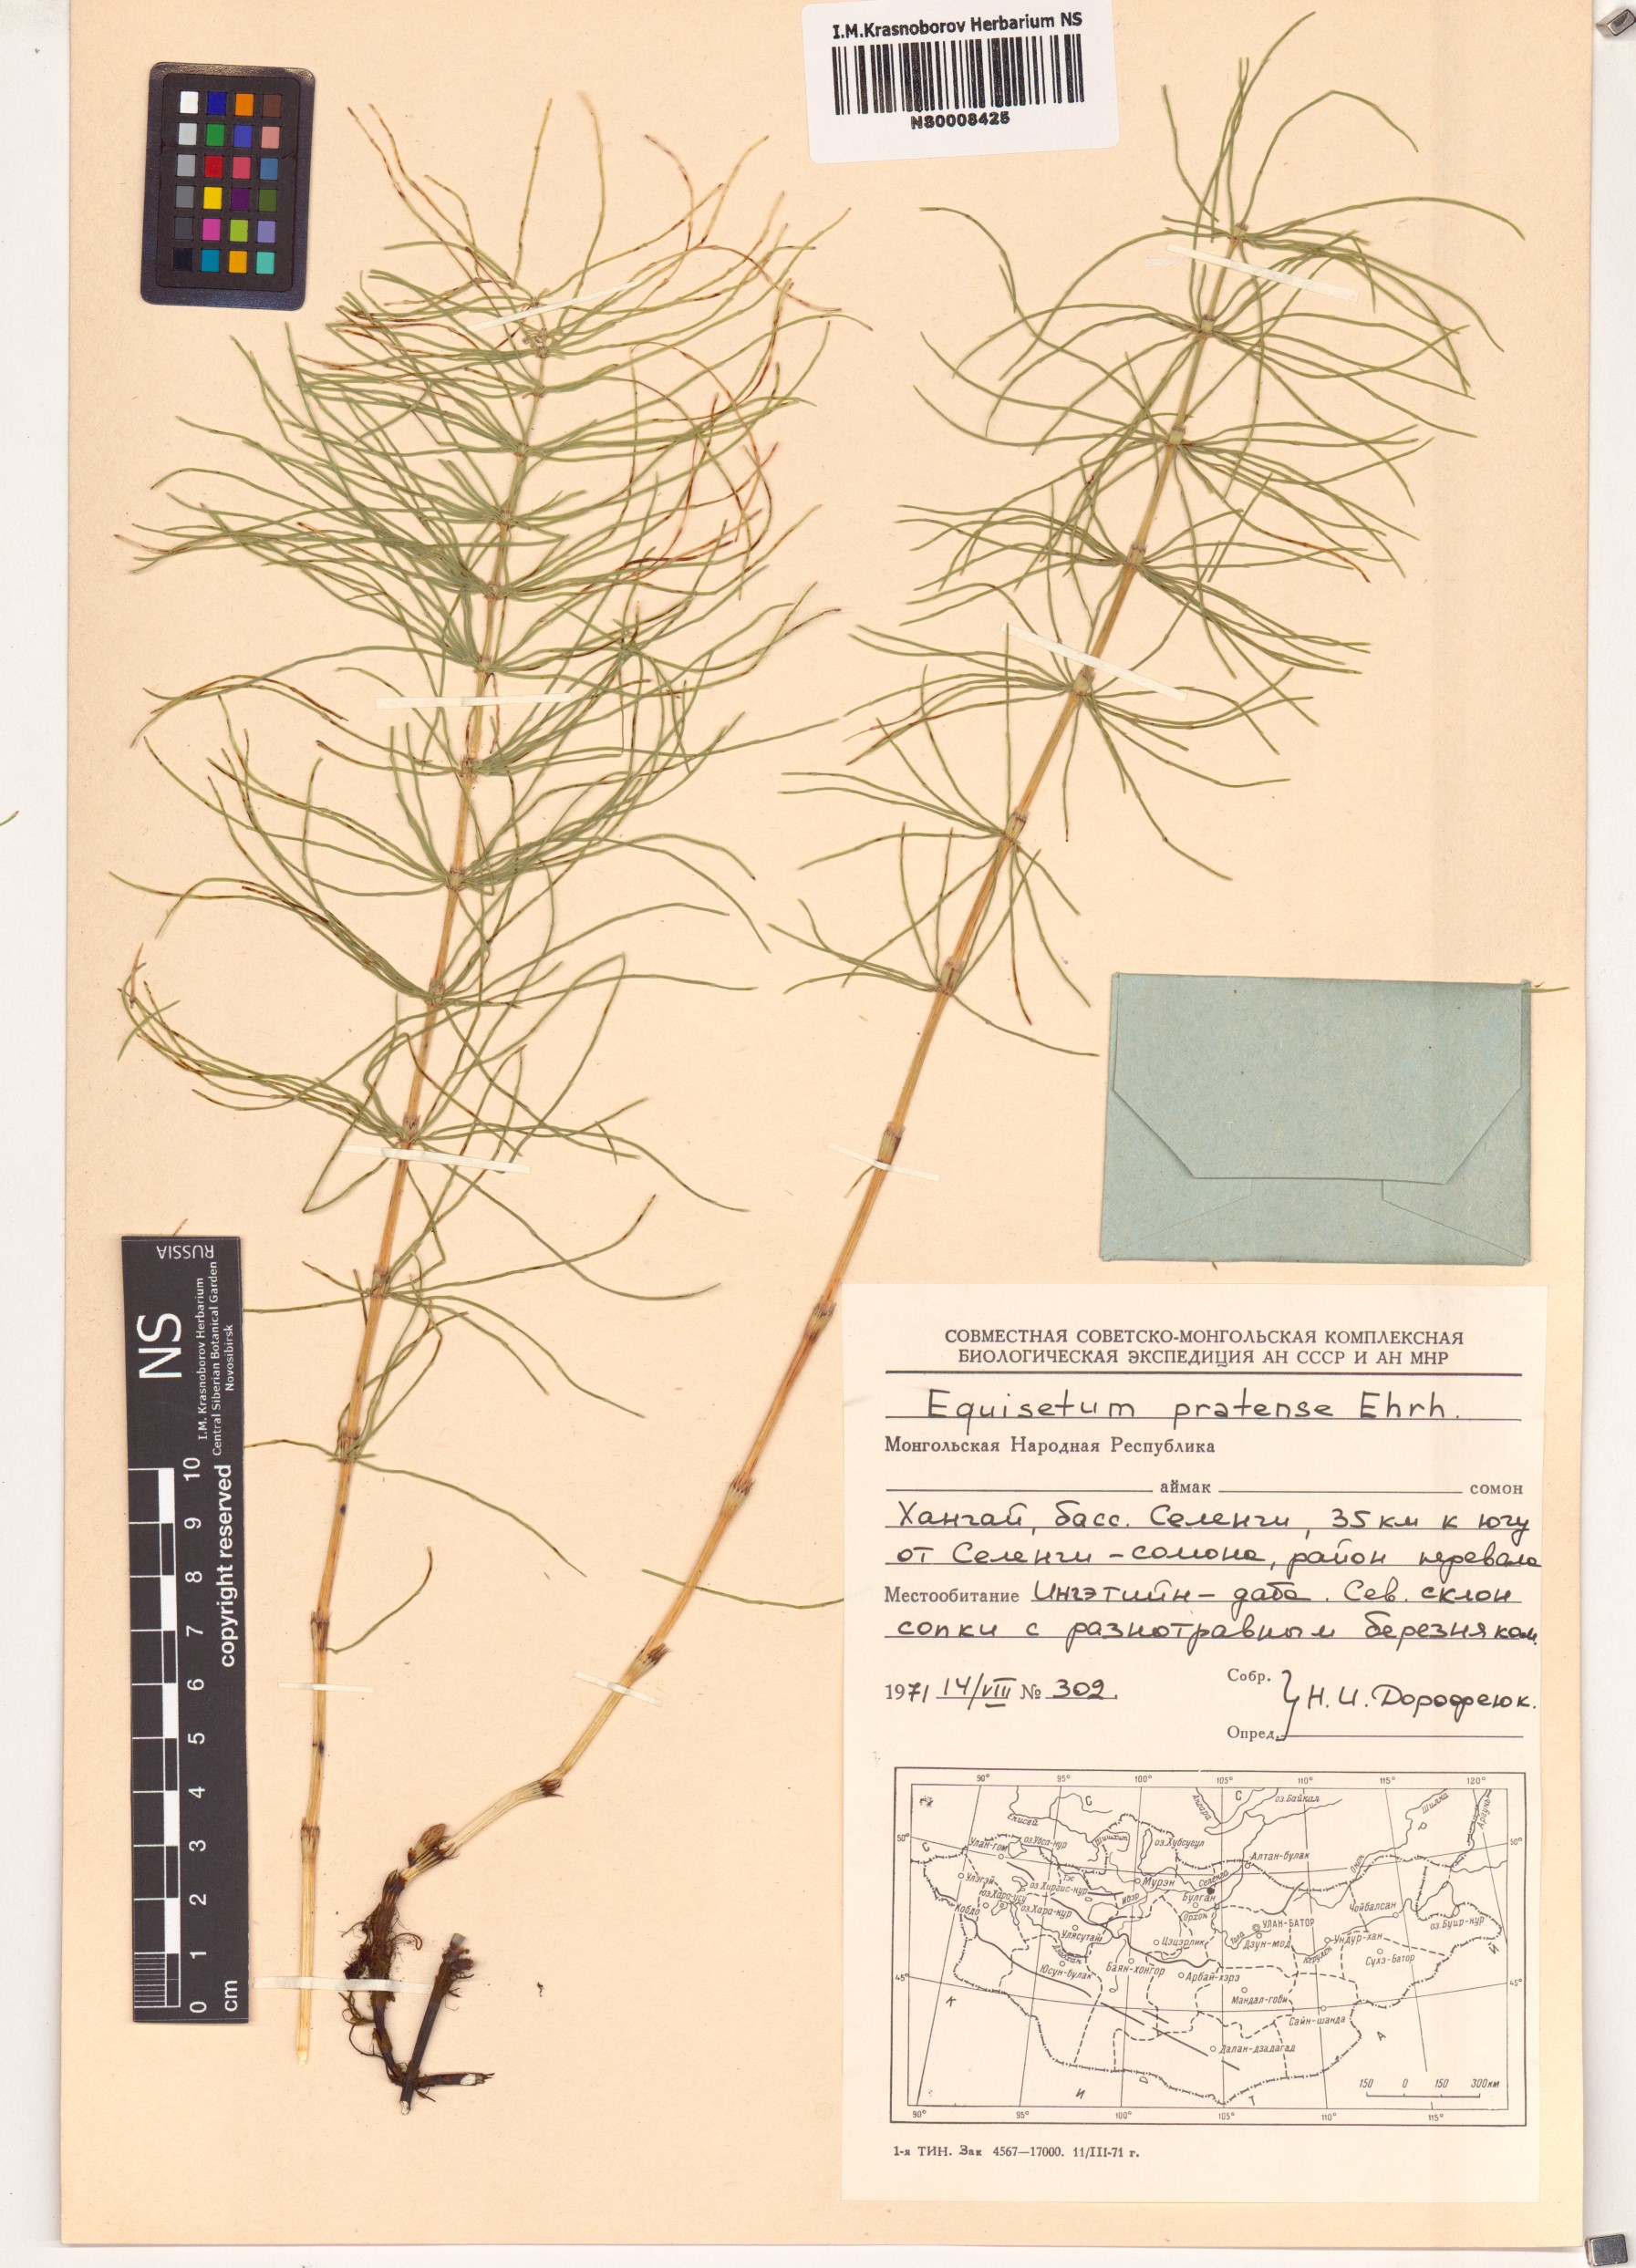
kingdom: Plantae
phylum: Tracheophyta
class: Polypodiopsida
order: Equisetales
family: Equisetaceae
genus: Equisetum
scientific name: Equisetum pratense
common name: Meadow horsetail
